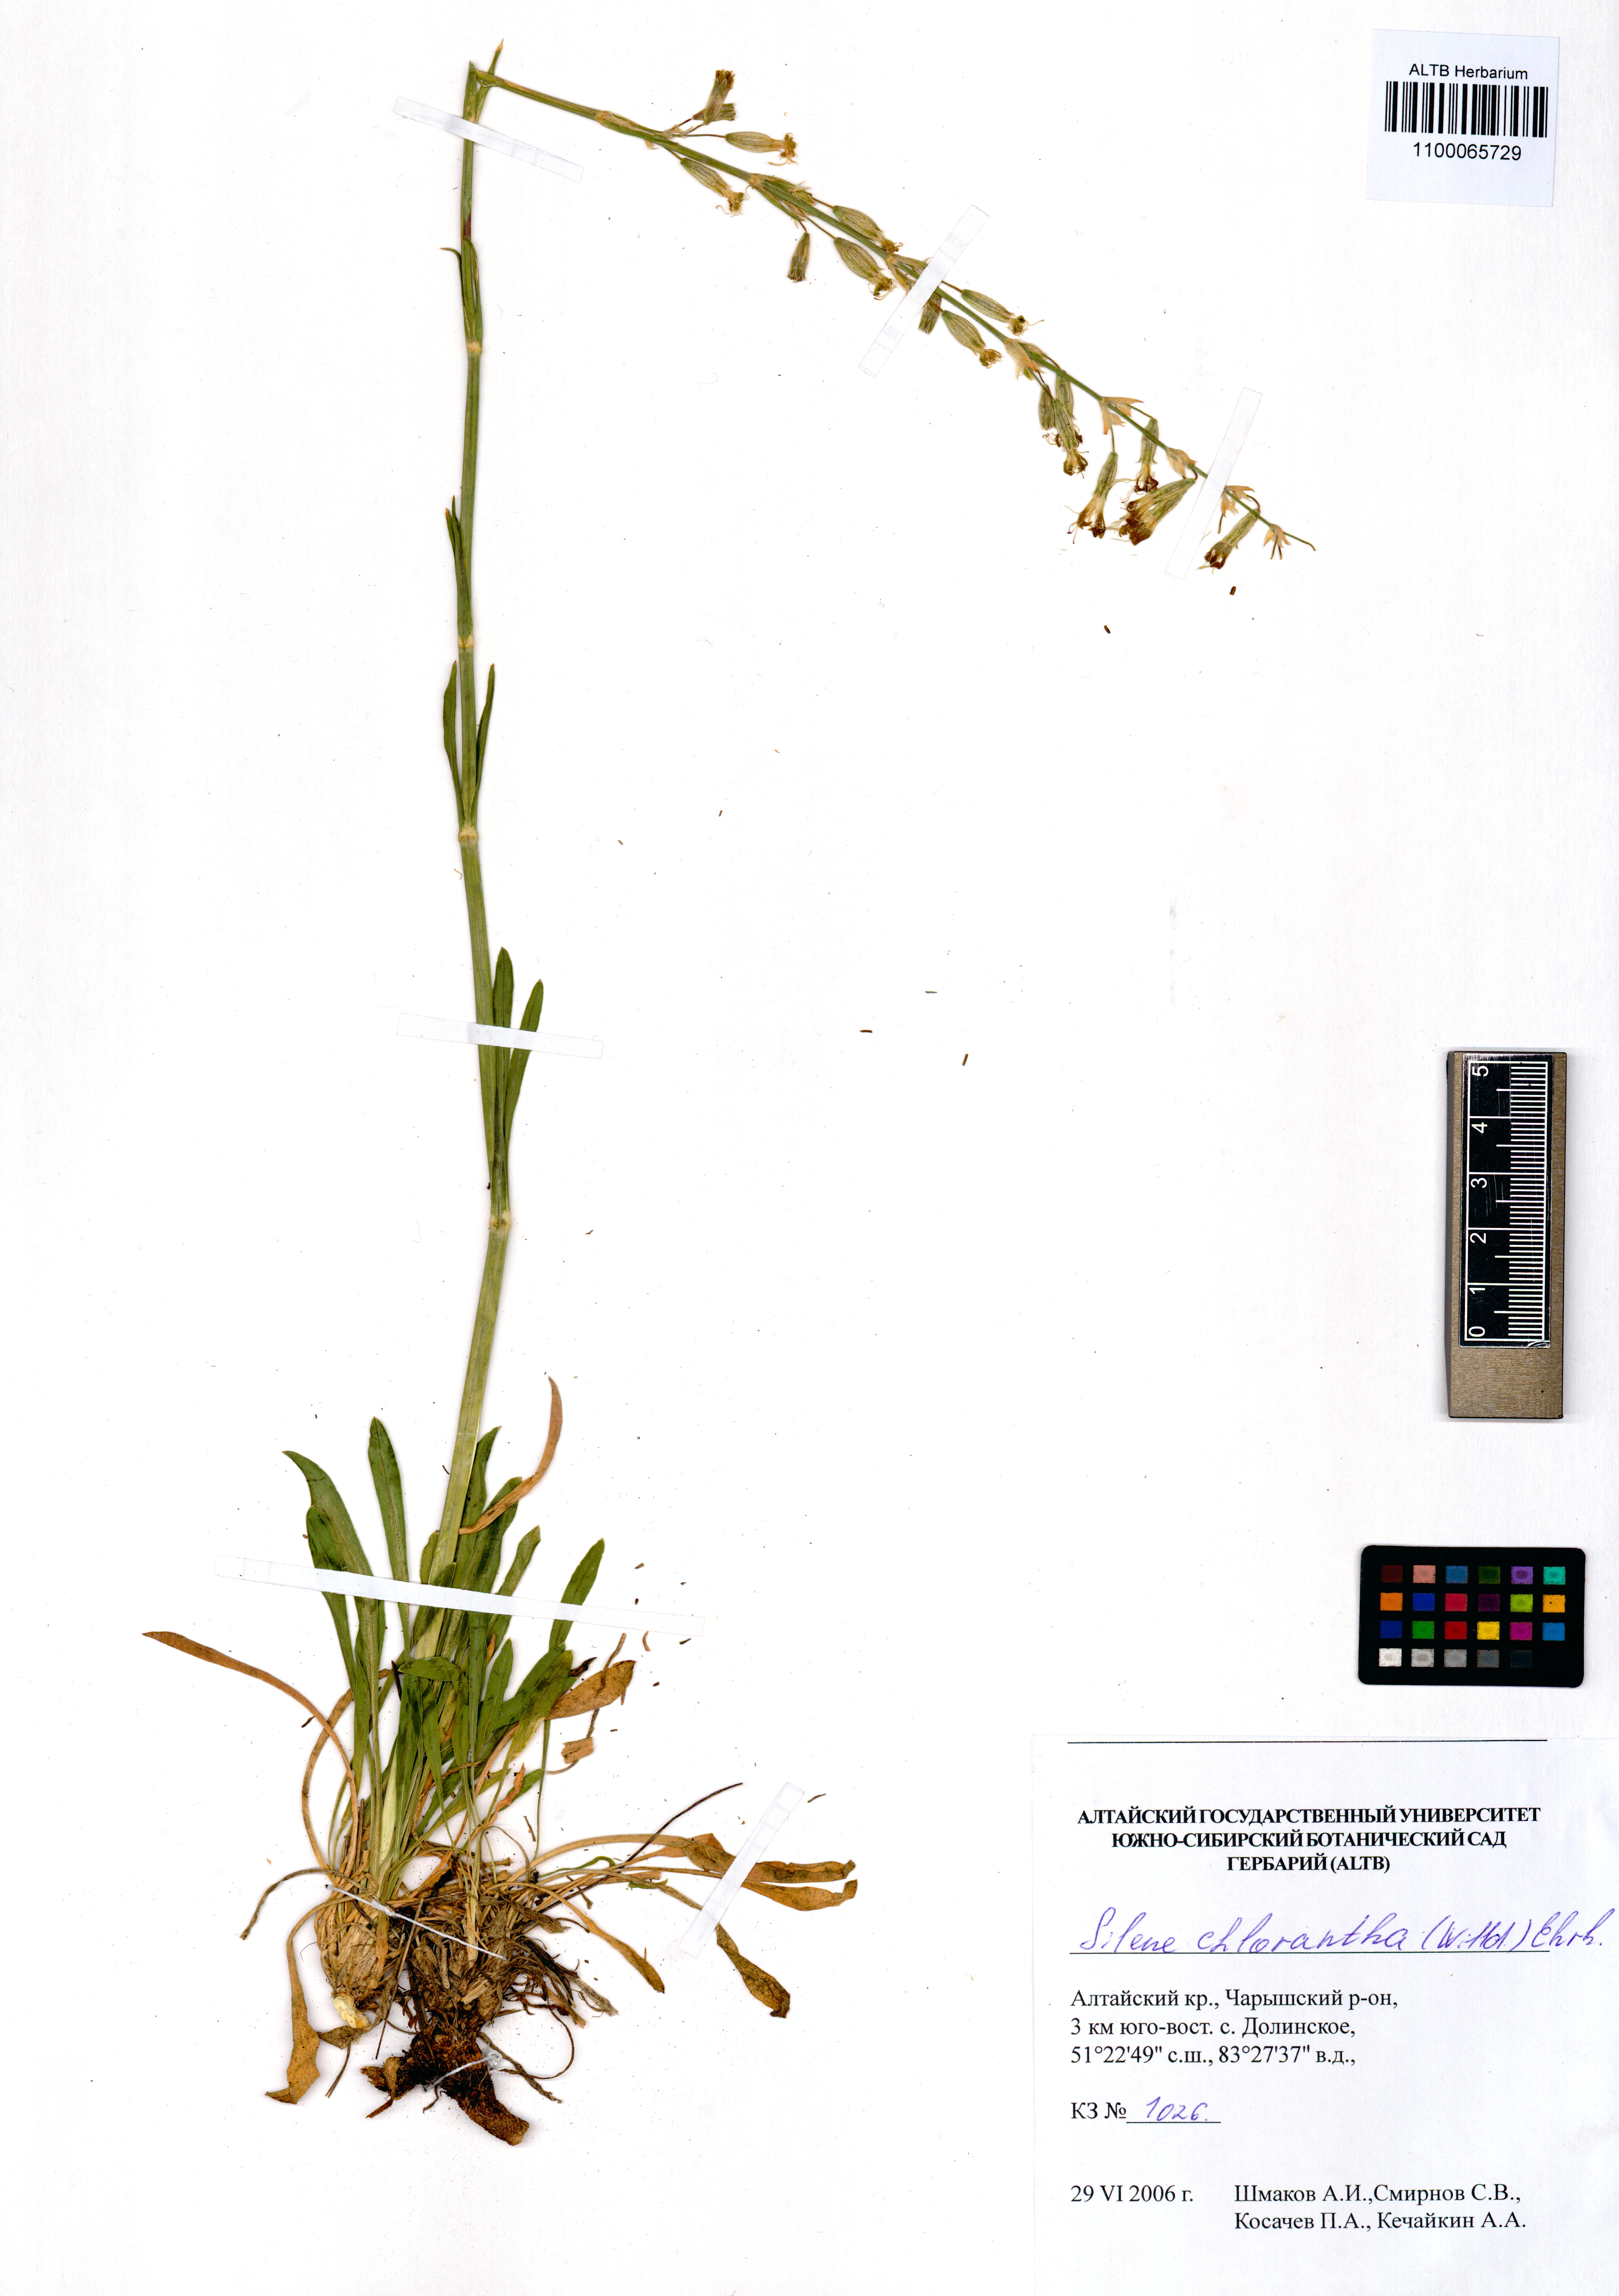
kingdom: Plantae
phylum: Tracheophyta
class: Magnoliopsida
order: Caryophyllales
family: Caryophyllaceae
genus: Silene
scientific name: Silene chlorantha
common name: Yellowgreen catchfly
